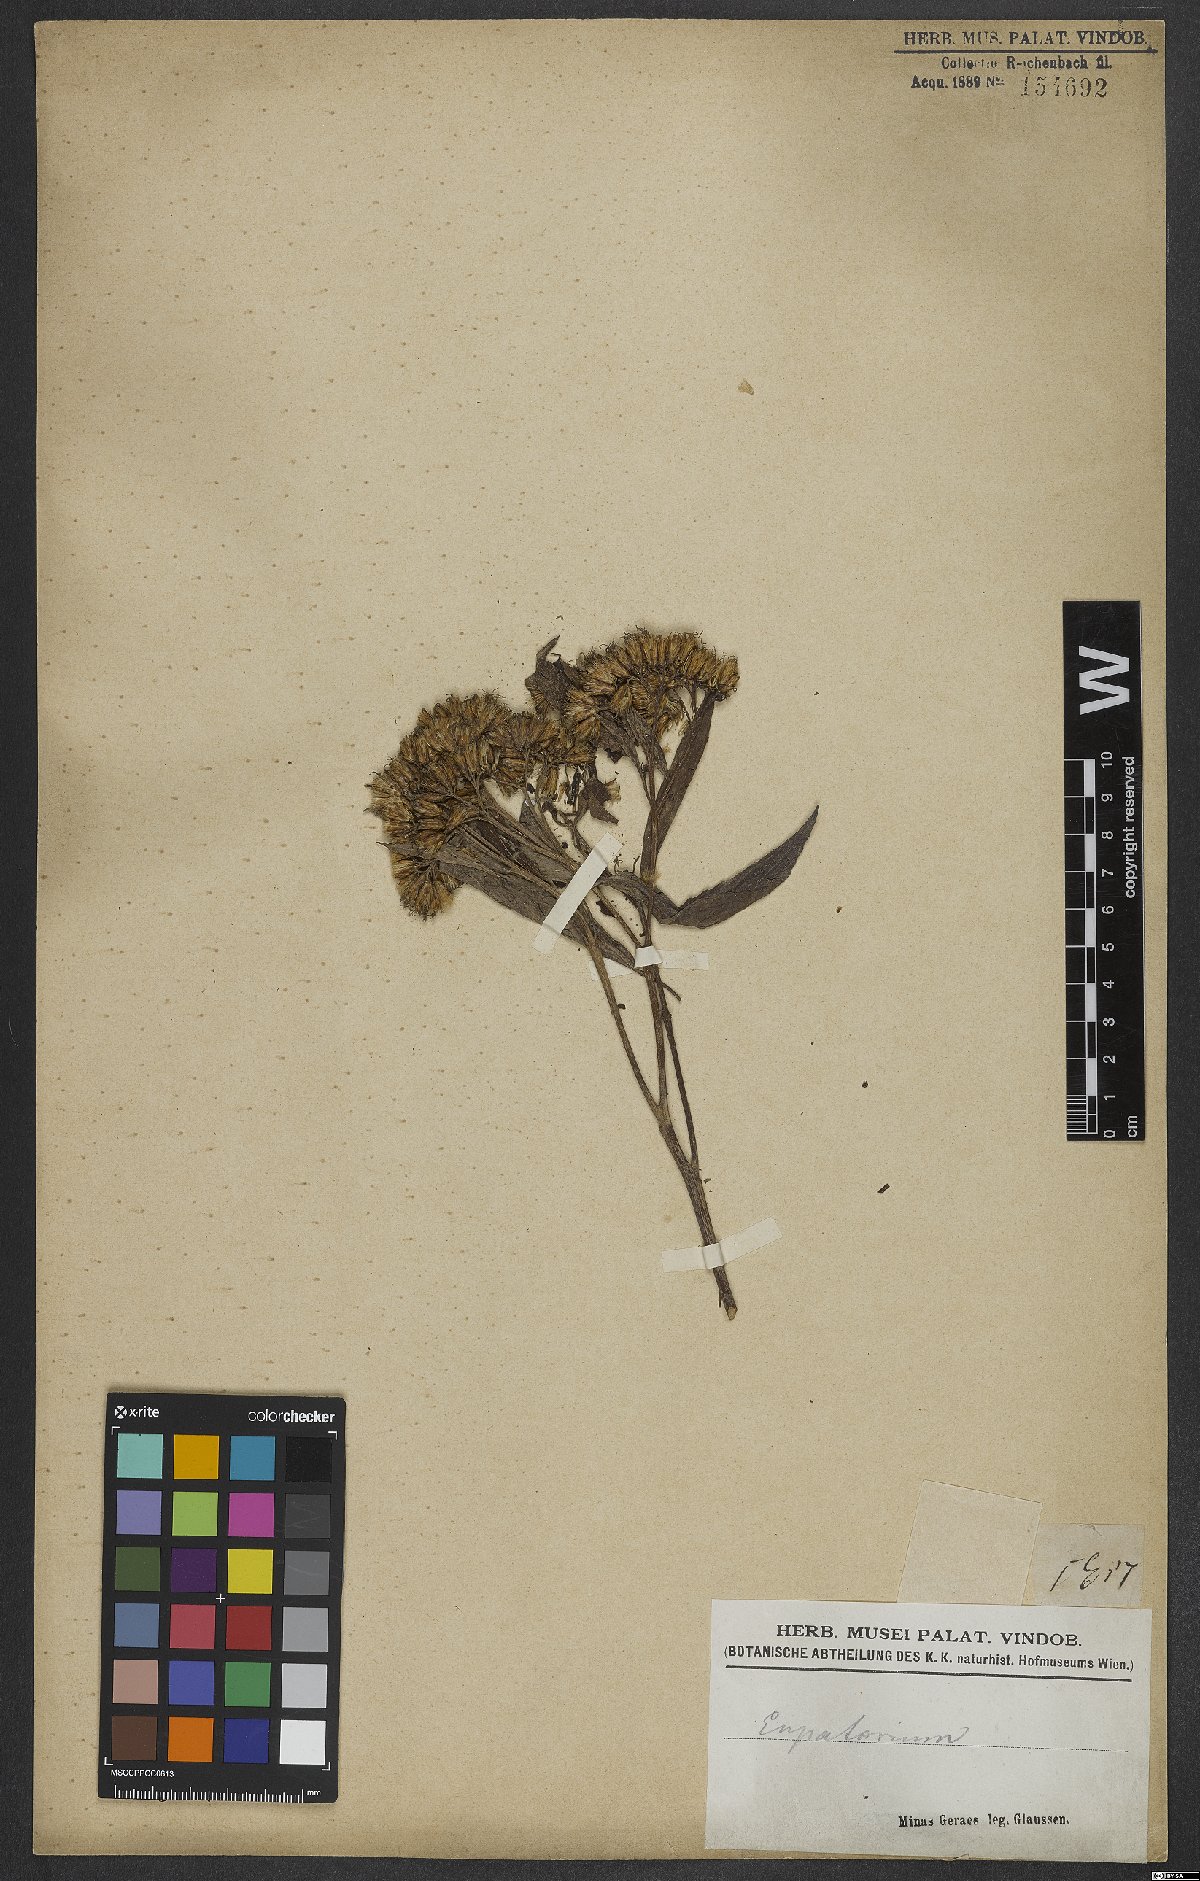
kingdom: Plantae
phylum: Tracheophyta
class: Magnoliopsida
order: Asterales
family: Asteraceae
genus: Eupatorium
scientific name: Eupatorium
